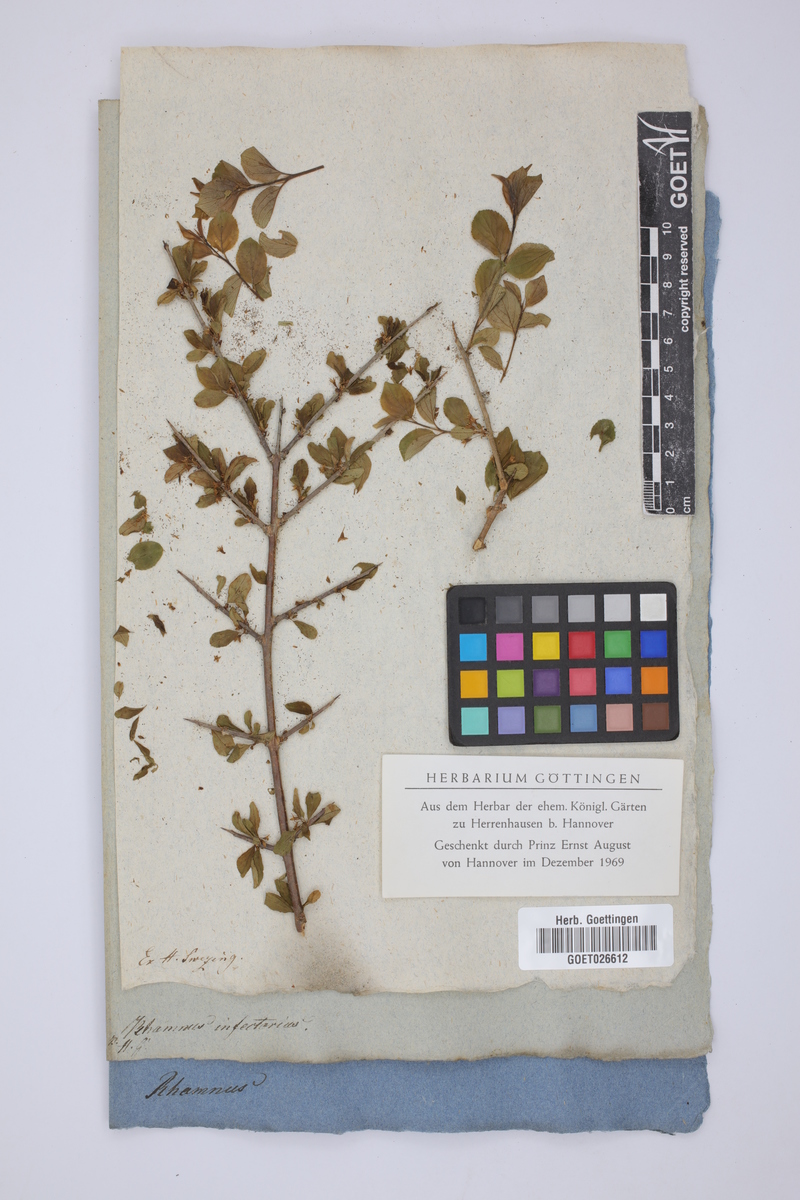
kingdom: Plantae
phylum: Tracheophyta
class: Magnoliopsida
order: Rosales
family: Rhamnaceae
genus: Rhamnus
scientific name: Rhamnus infectoria
